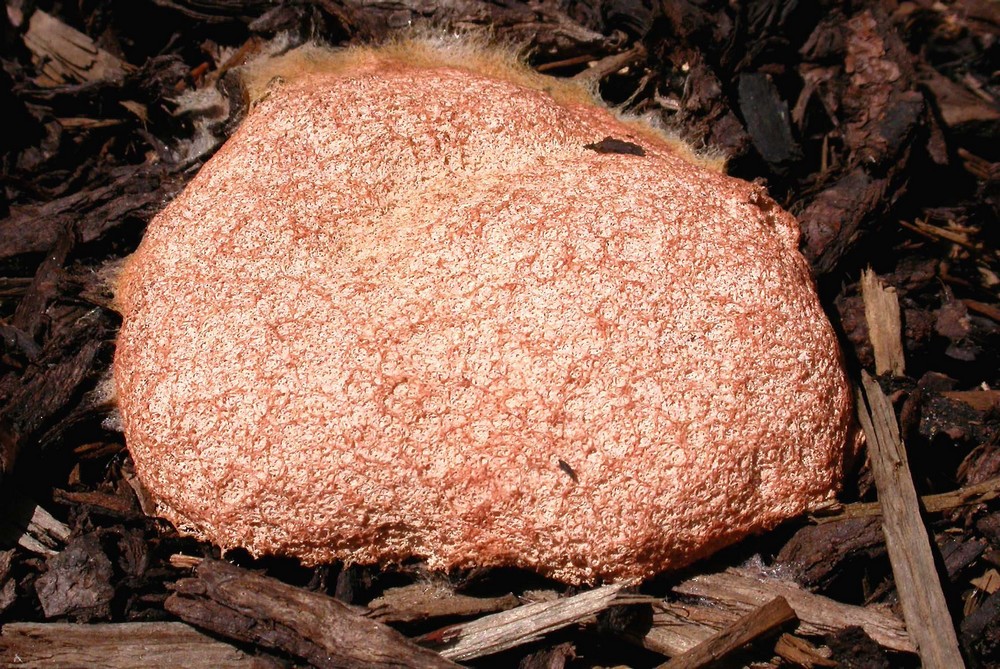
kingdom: Protozoa
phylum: Mycetozoa
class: Myxomycetes
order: Physarales
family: Physaraceae
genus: Fuligo
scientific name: Fuligo septica
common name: Dog vomit slime mold
